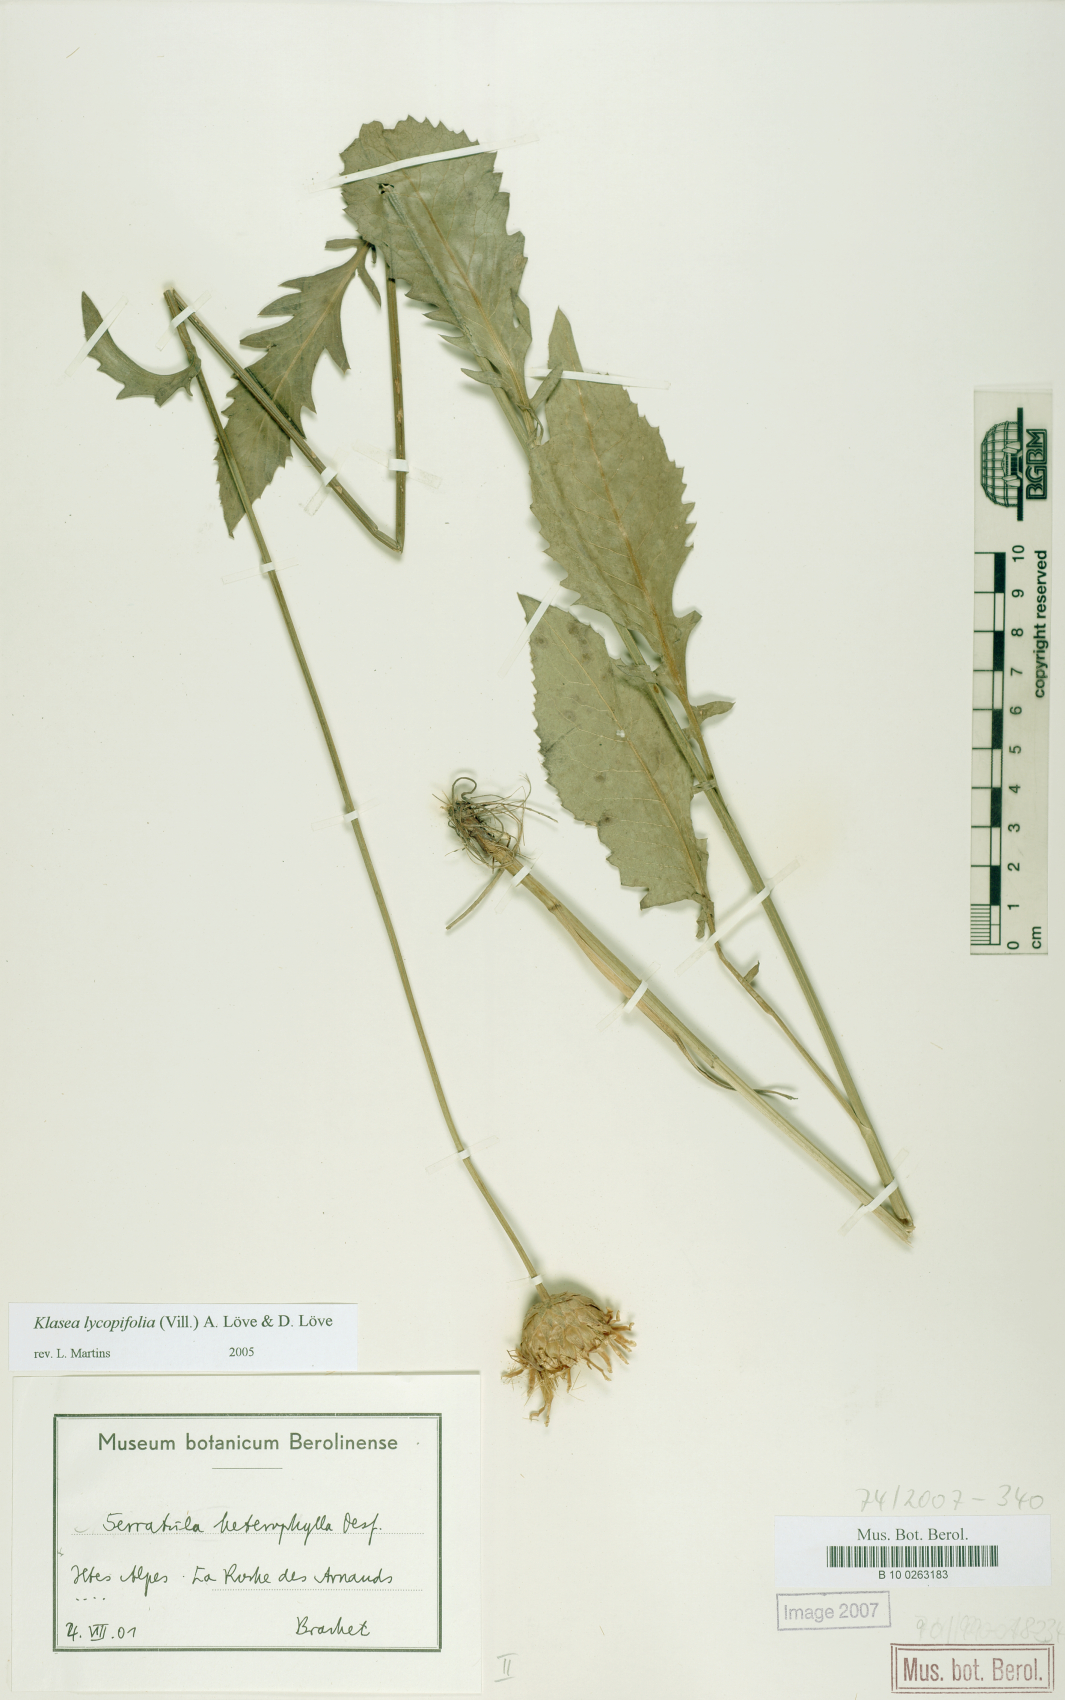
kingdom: Plantae
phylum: Tracheophyta
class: Magnoliopsida
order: Asterales
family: Asteraceae
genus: Klasea
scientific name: Klasea lycopifolia
